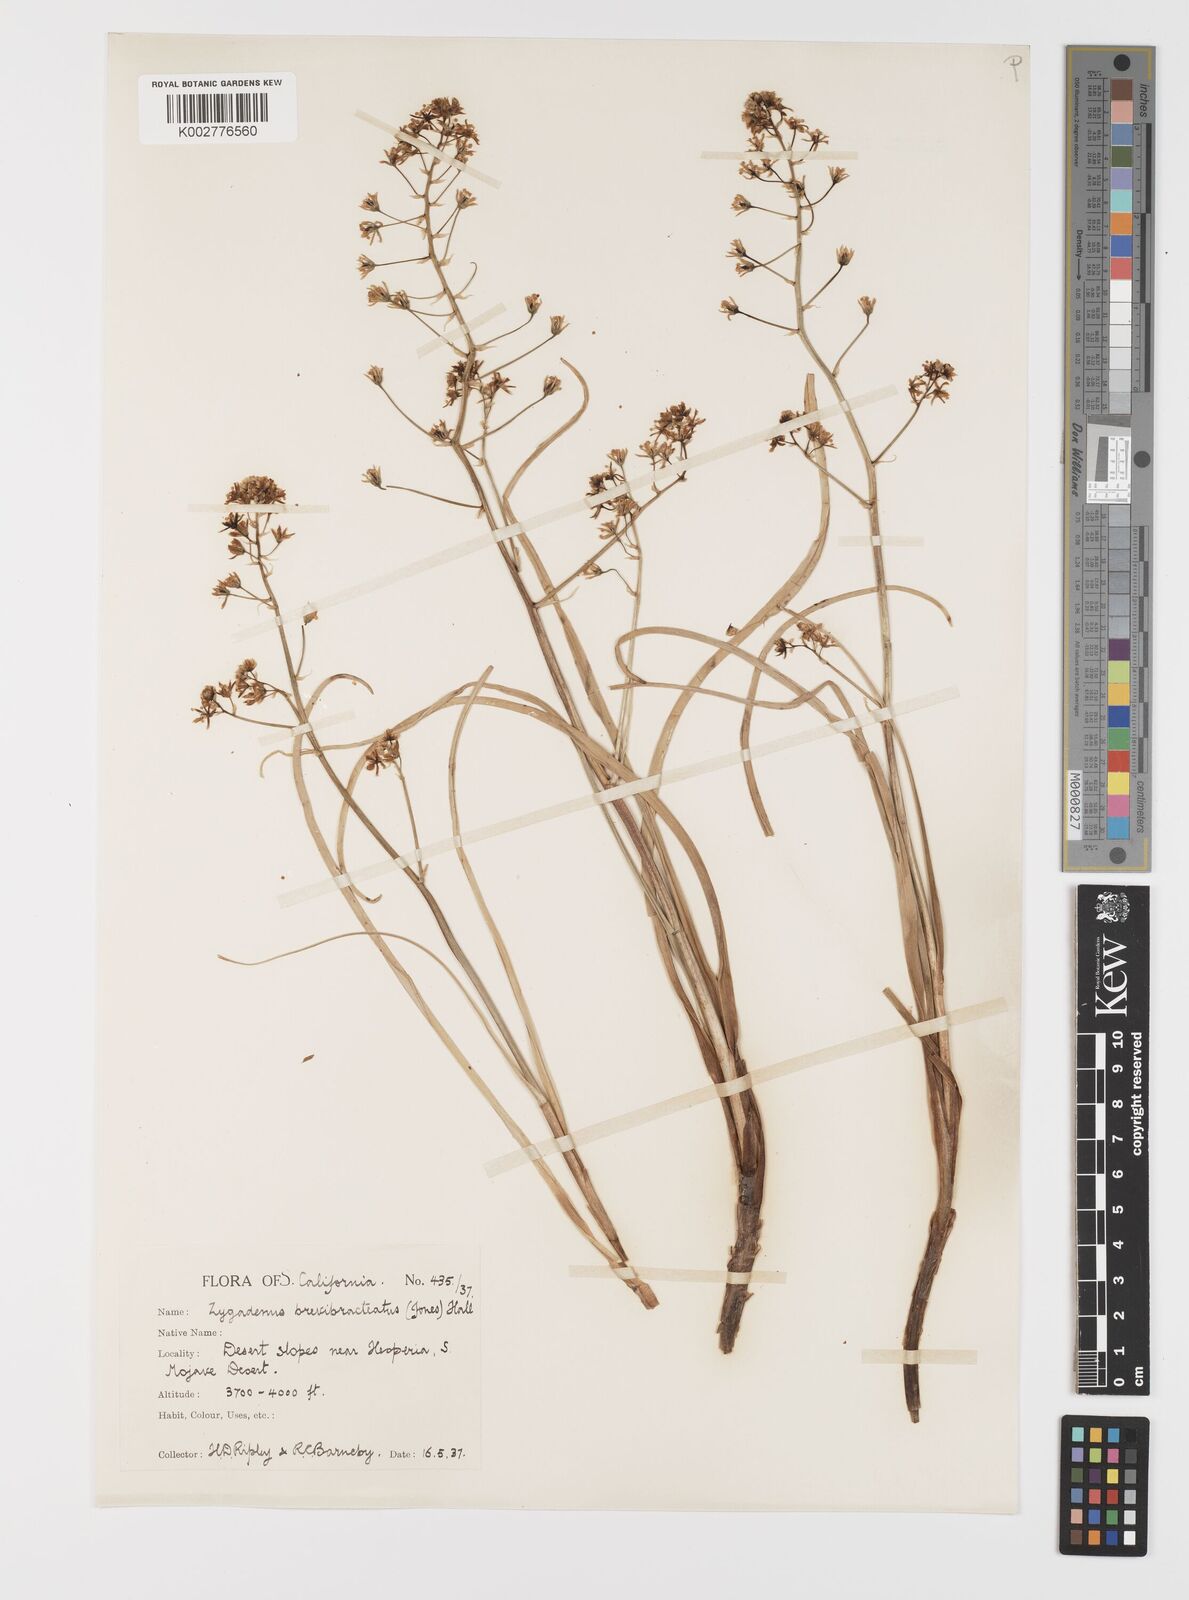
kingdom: Plantae
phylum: Tracheophyta
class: Liliopsida
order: Liliales
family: Melanthiaceae
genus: Toxicoscordion
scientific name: Toxicoscordion brevibracteatum
